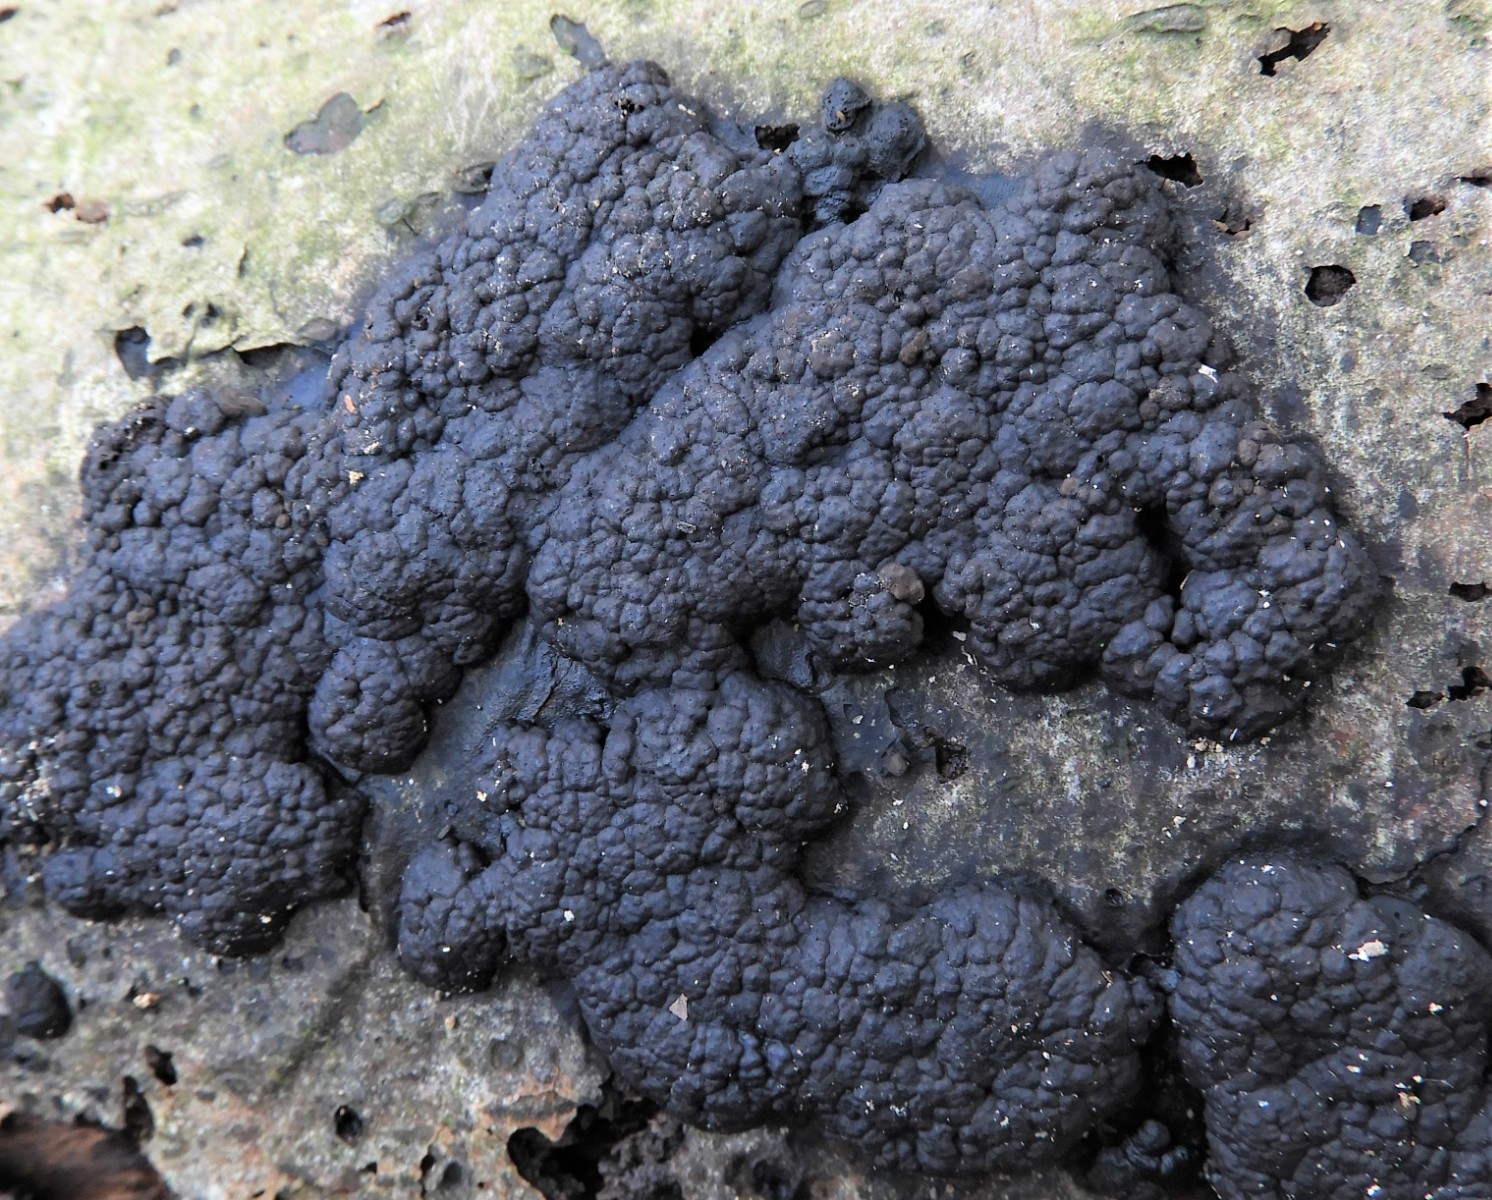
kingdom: Fungi
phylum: Ascomycota
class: Sordariomycetes
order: Xylariales
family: Hypoxylaceae
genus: Jackrogersella
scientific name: Jackrogersella cohaerens
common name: sammenflydende kulbær
